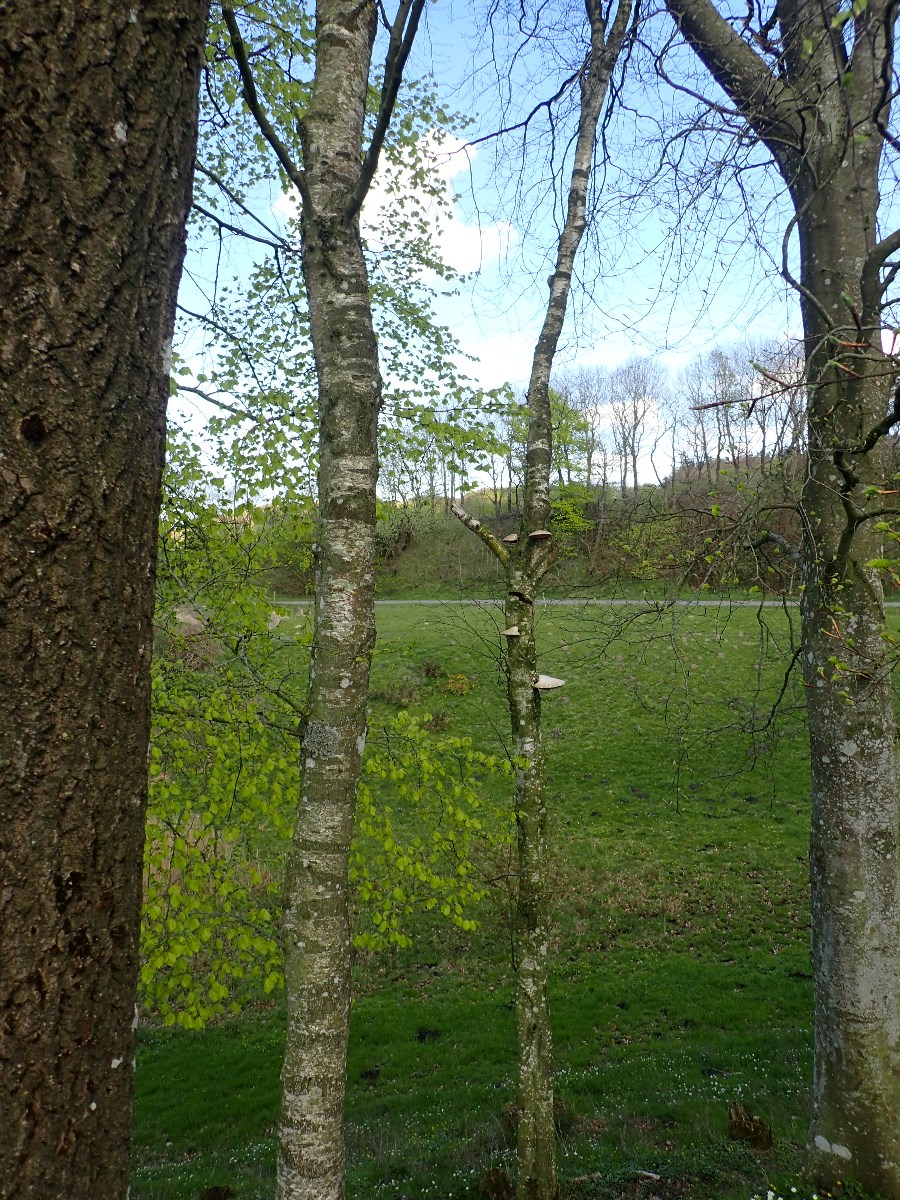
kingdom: Fungi
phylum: Basidiomycota
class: Agaricomycetes
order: Polyporales
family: Fomitopsidaceae
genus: Fomitopsis
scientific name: Fomitopsis betulina
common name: birkeporesvamp
